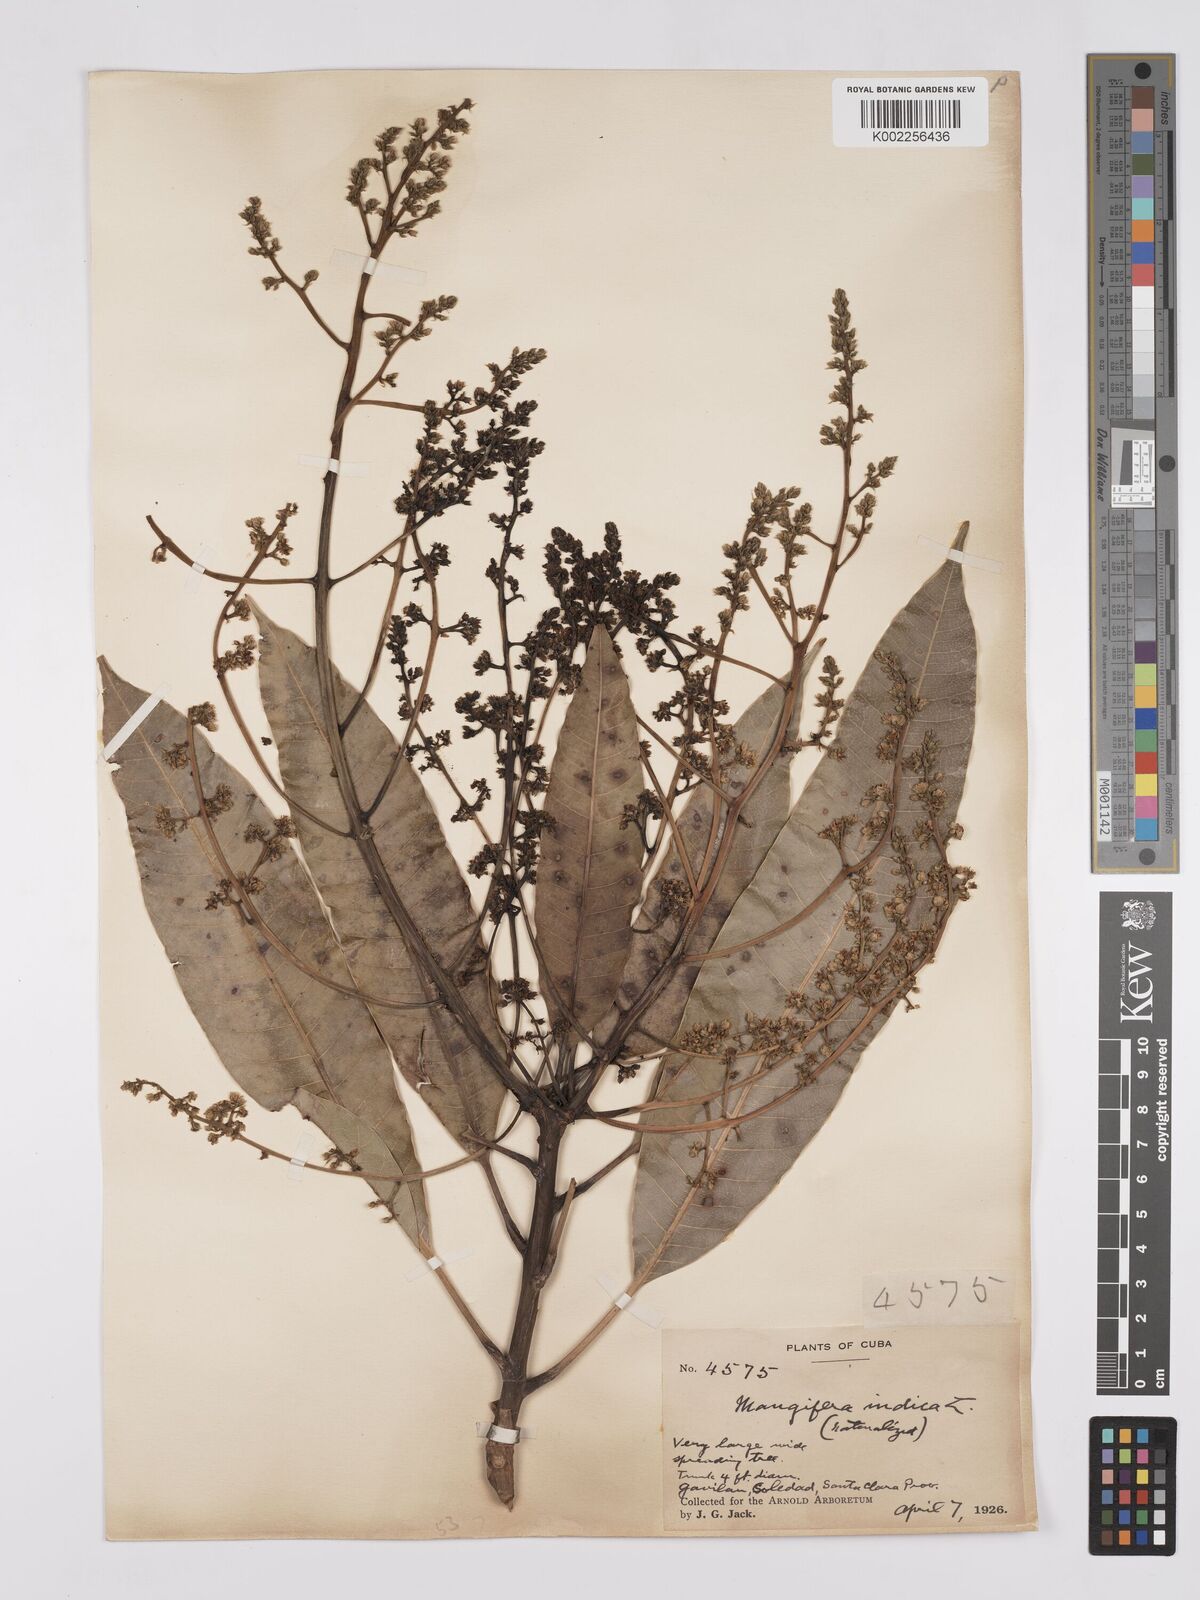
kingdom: Plantae
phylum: Tracheophyta
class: Magnoliopsida
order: Sapindales
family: Anacardiaceae
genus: Mangifera
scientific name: Mangifera indica
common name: Mango
